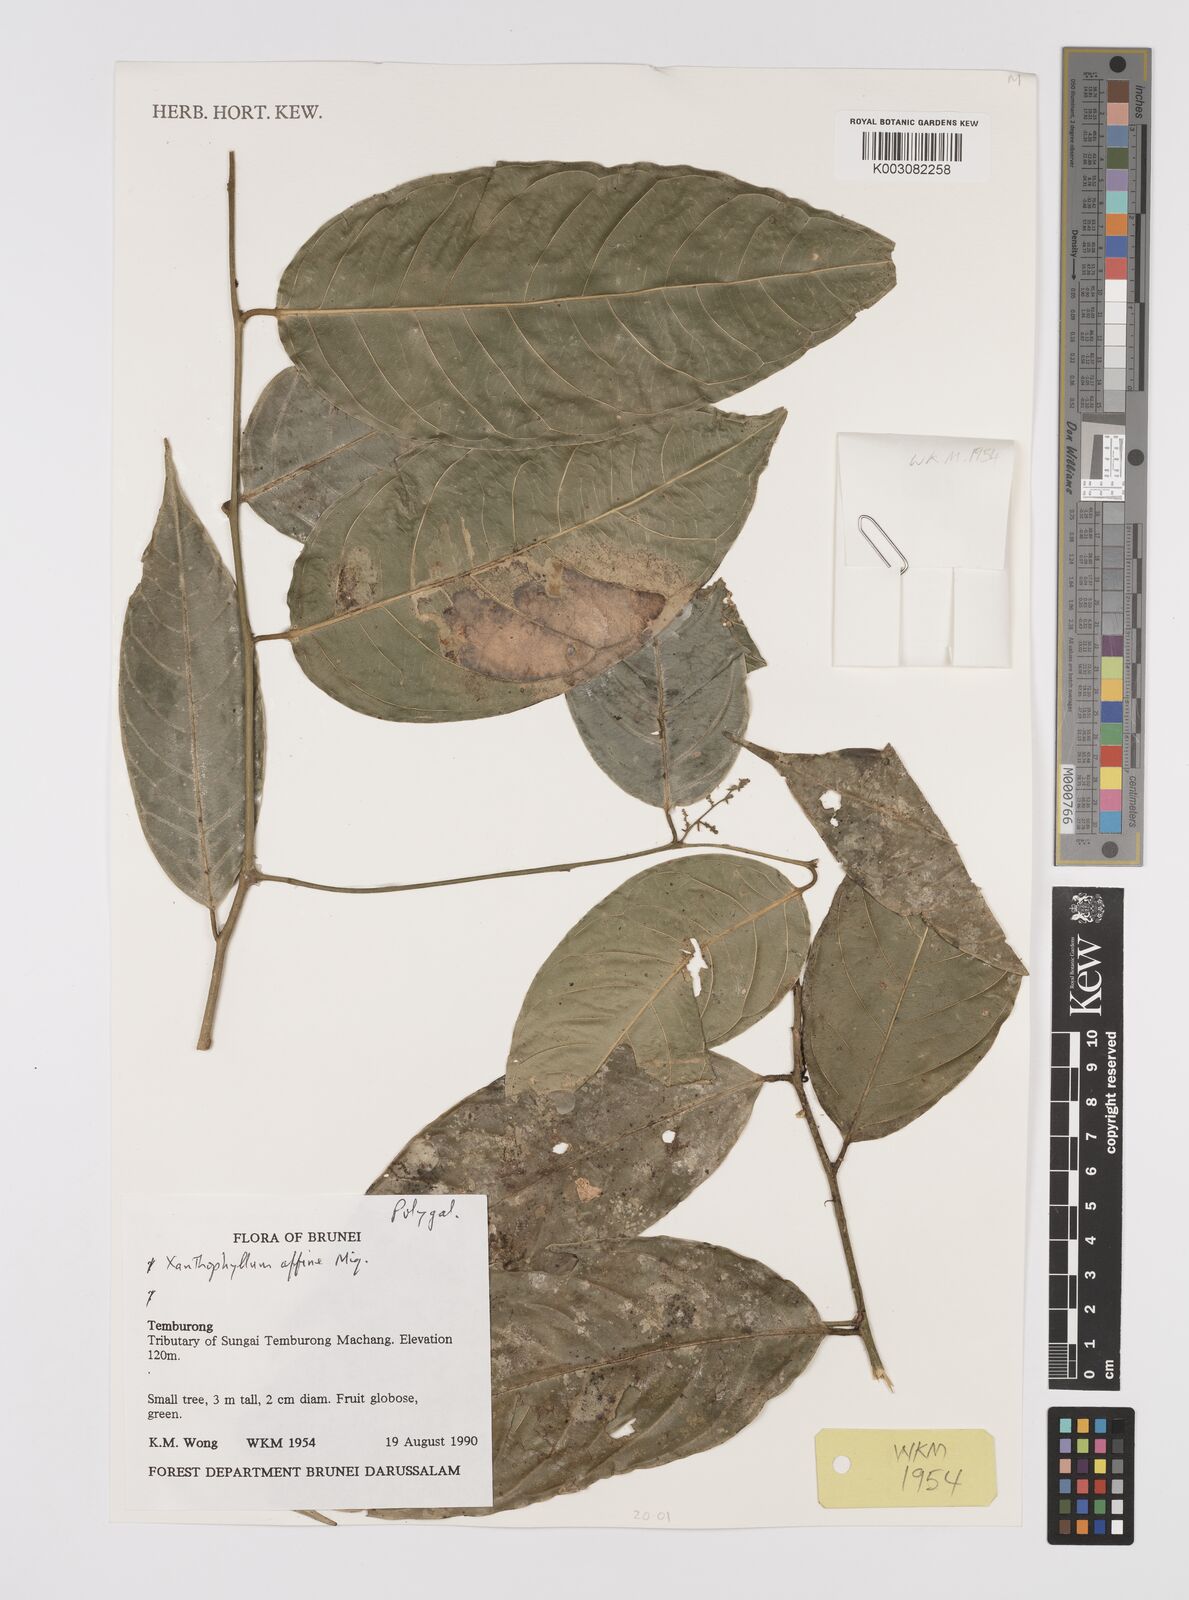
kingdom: Plantae
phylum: Tracheophyta
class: Magnoliopsida
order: Fabales
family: Polygalaceae
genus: Xanthophyllum
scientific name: Xanthophyllum flavescens
